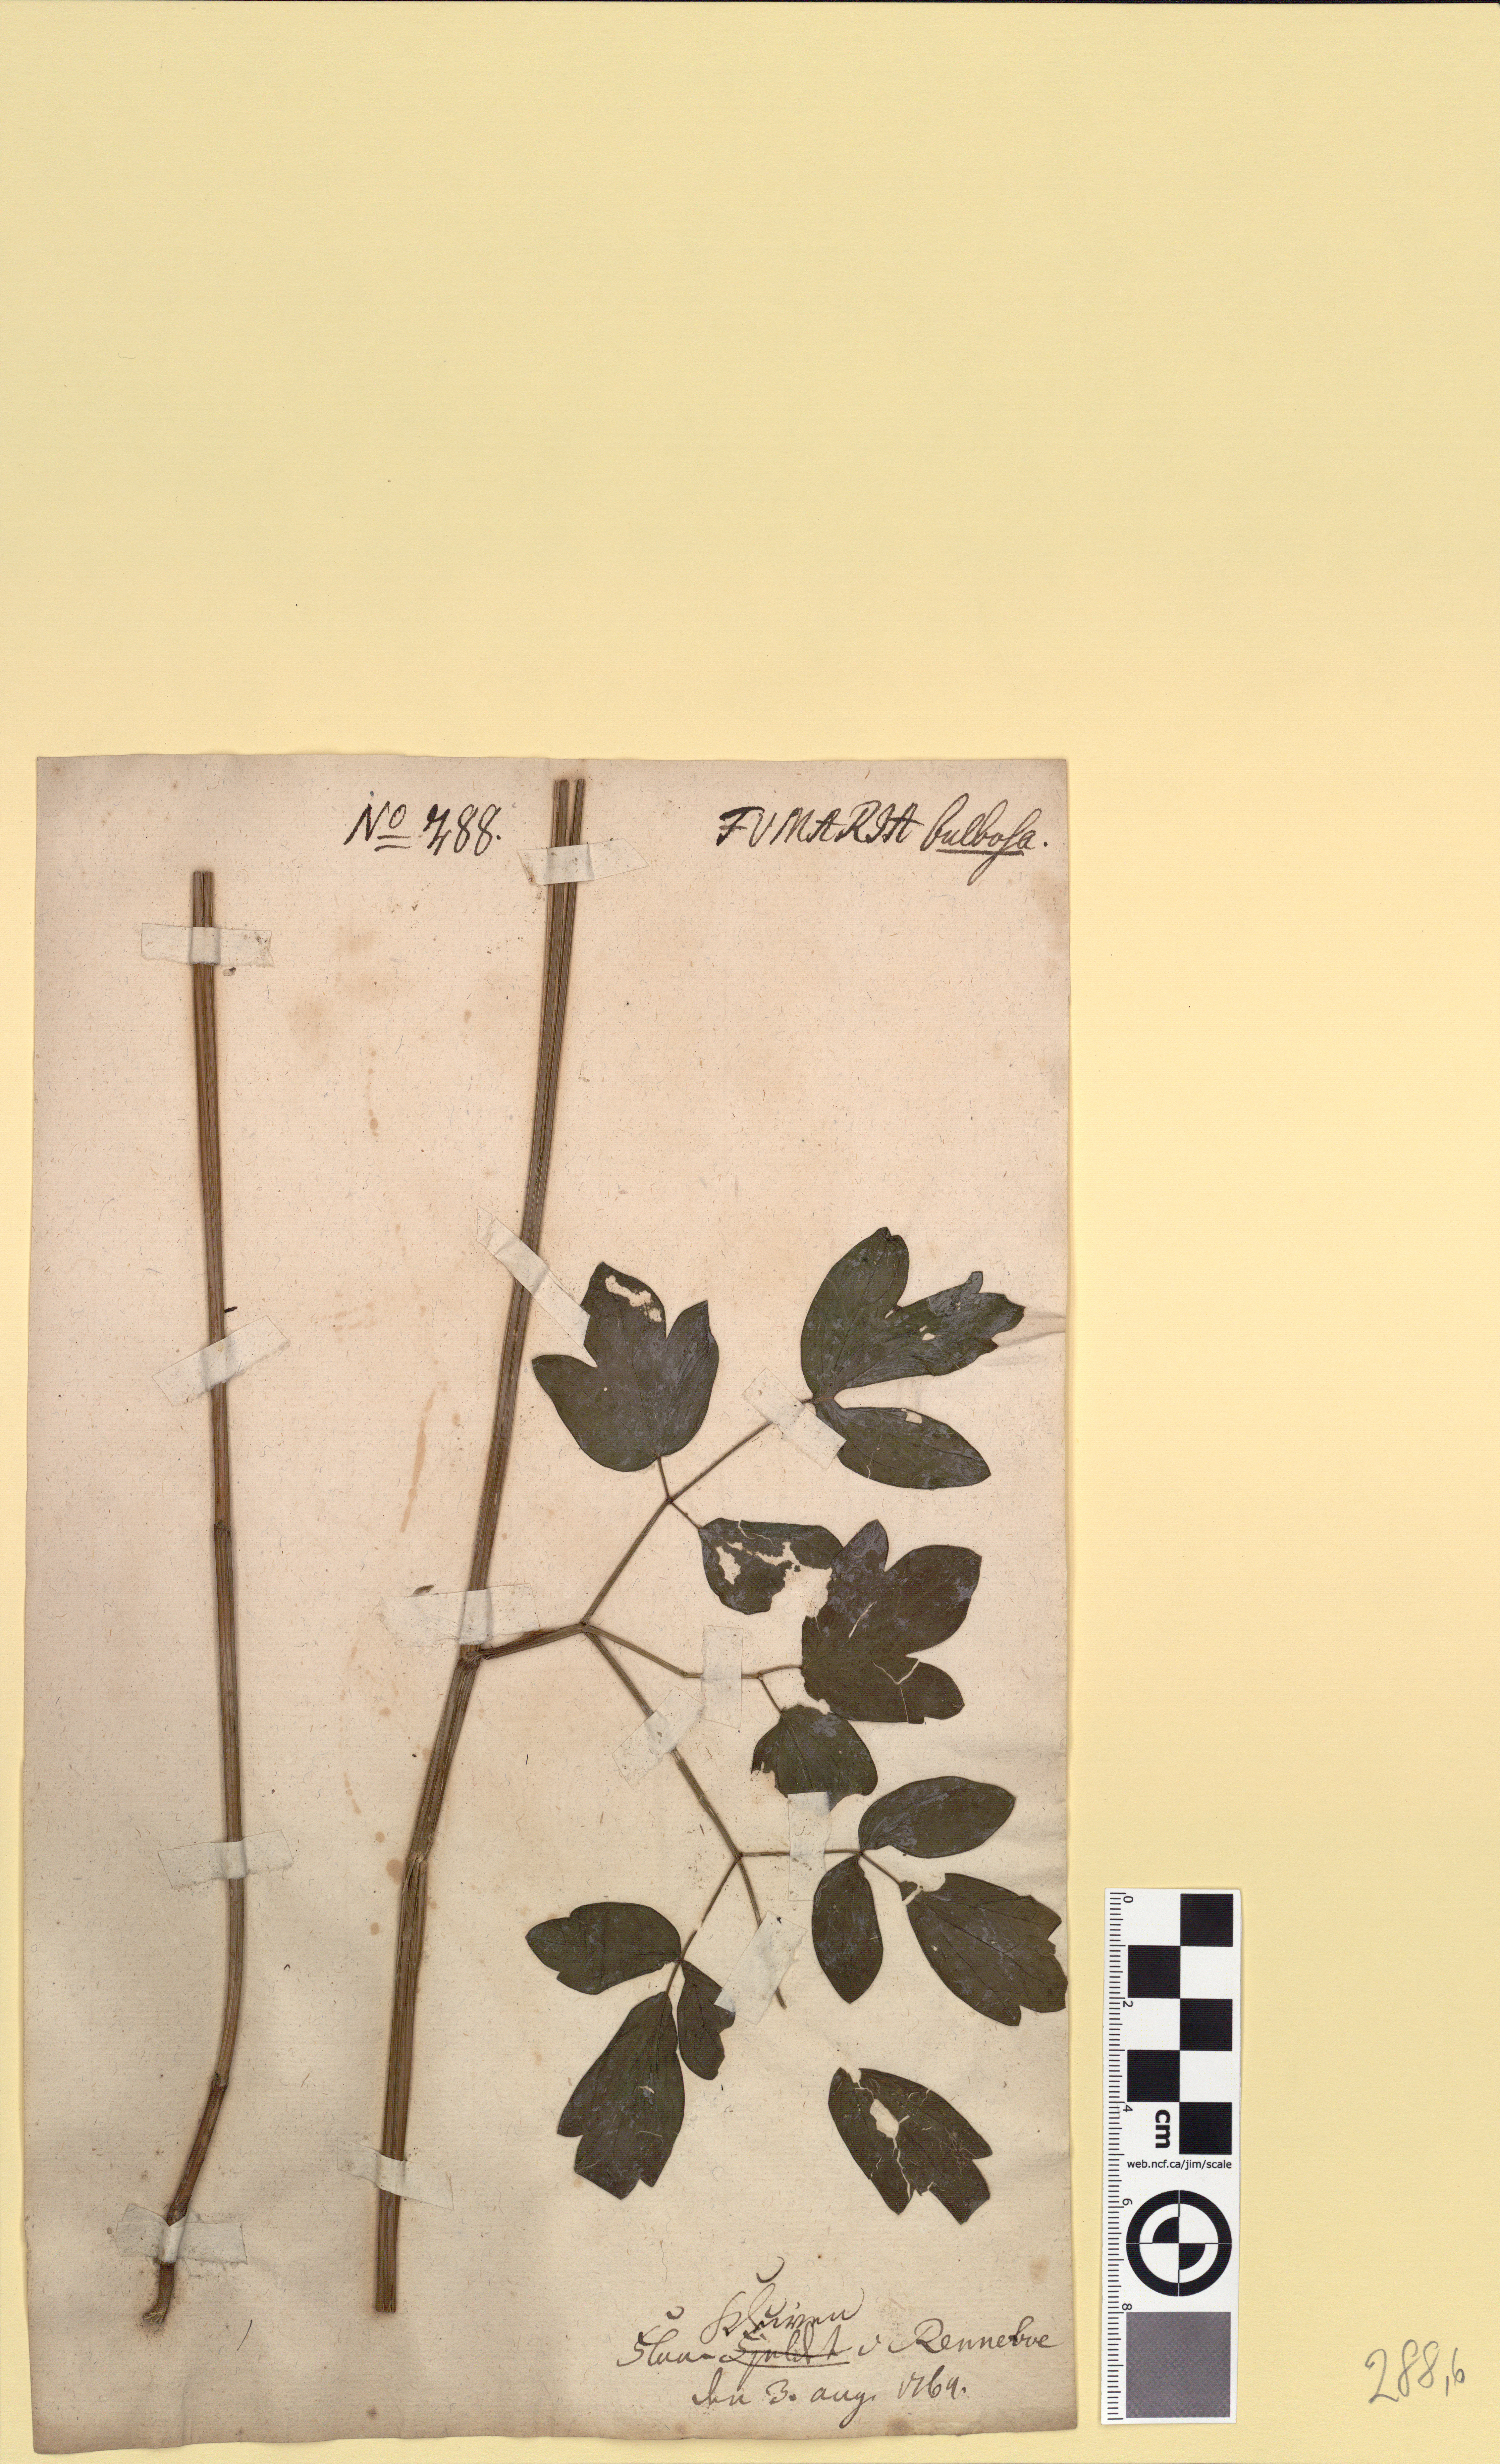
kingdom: Plantae
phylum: Tracheophyta
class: Magnoliopsida
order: Ranunculales
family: Ranunculaceae
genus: Thalictrum
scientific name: Thalictrum flavum
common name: Common meadow-rue
